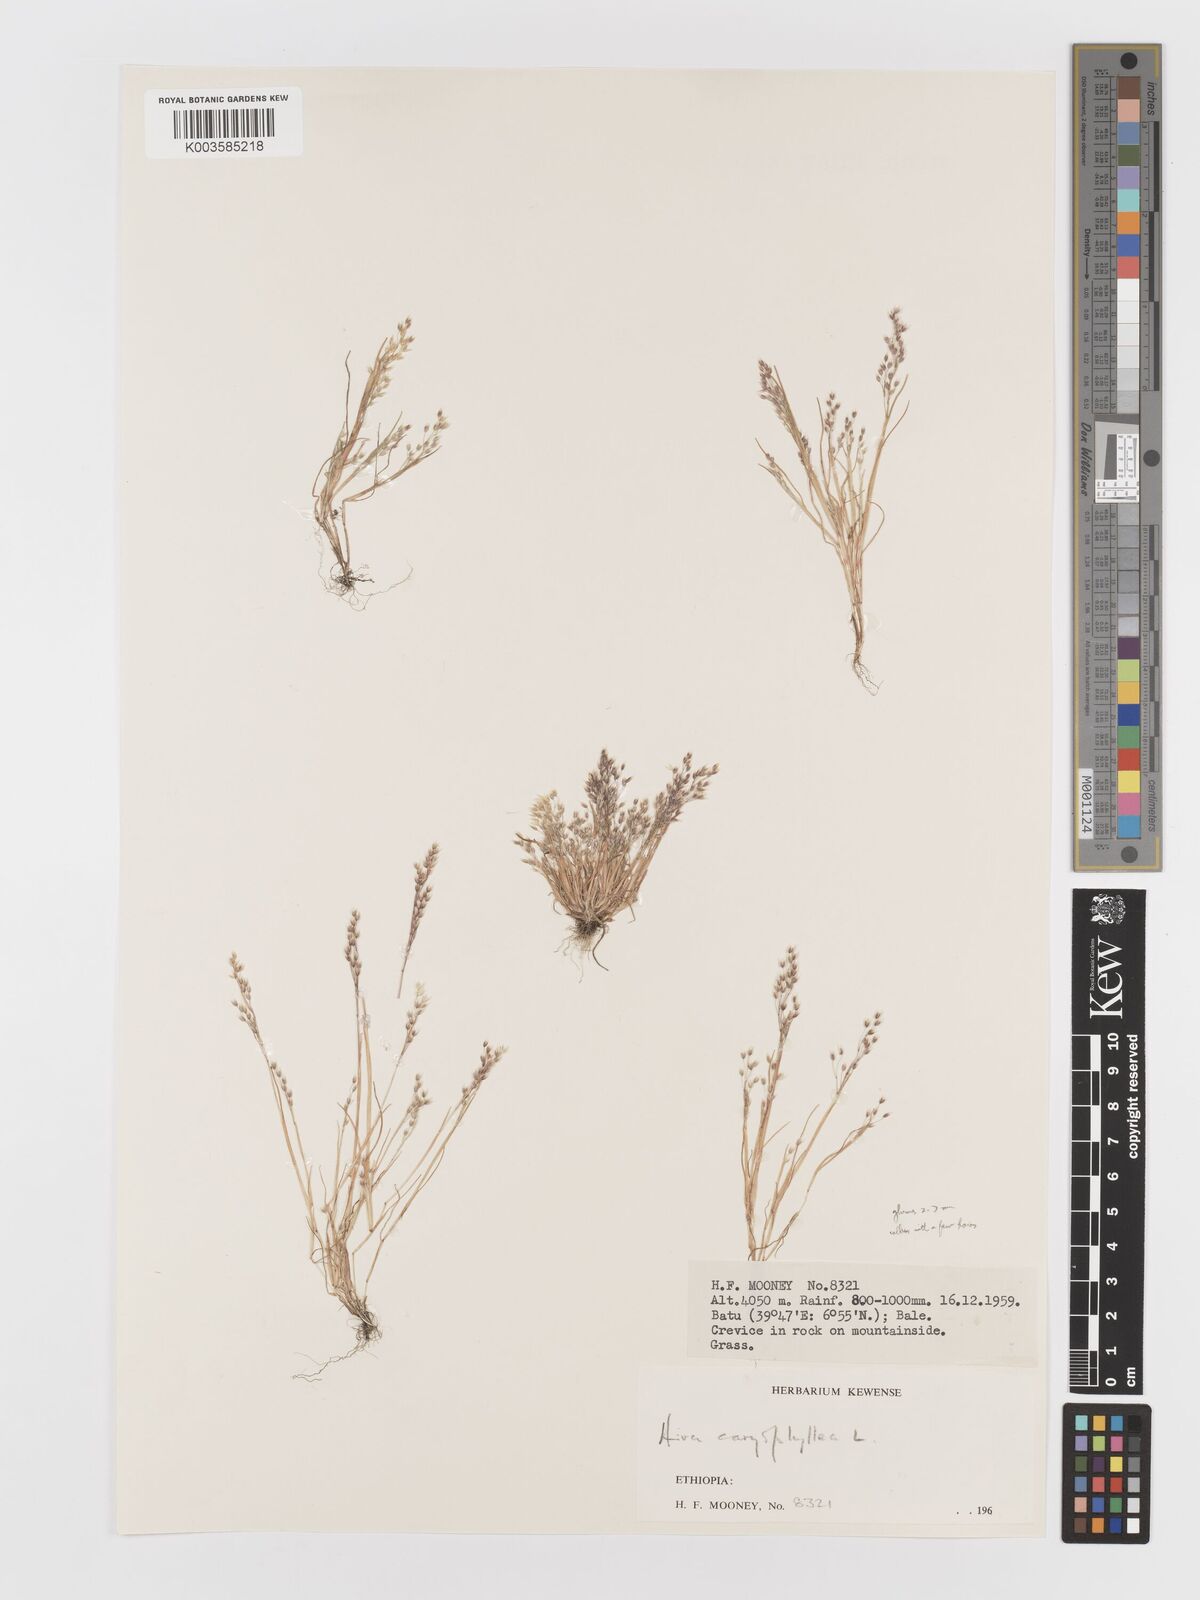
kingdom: Plantae
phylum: Tracheophyta
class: Liliopsida
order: Poales
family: Poaceae
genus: Aira
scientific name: Aira caryophyllea
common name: Silver hairgrass
